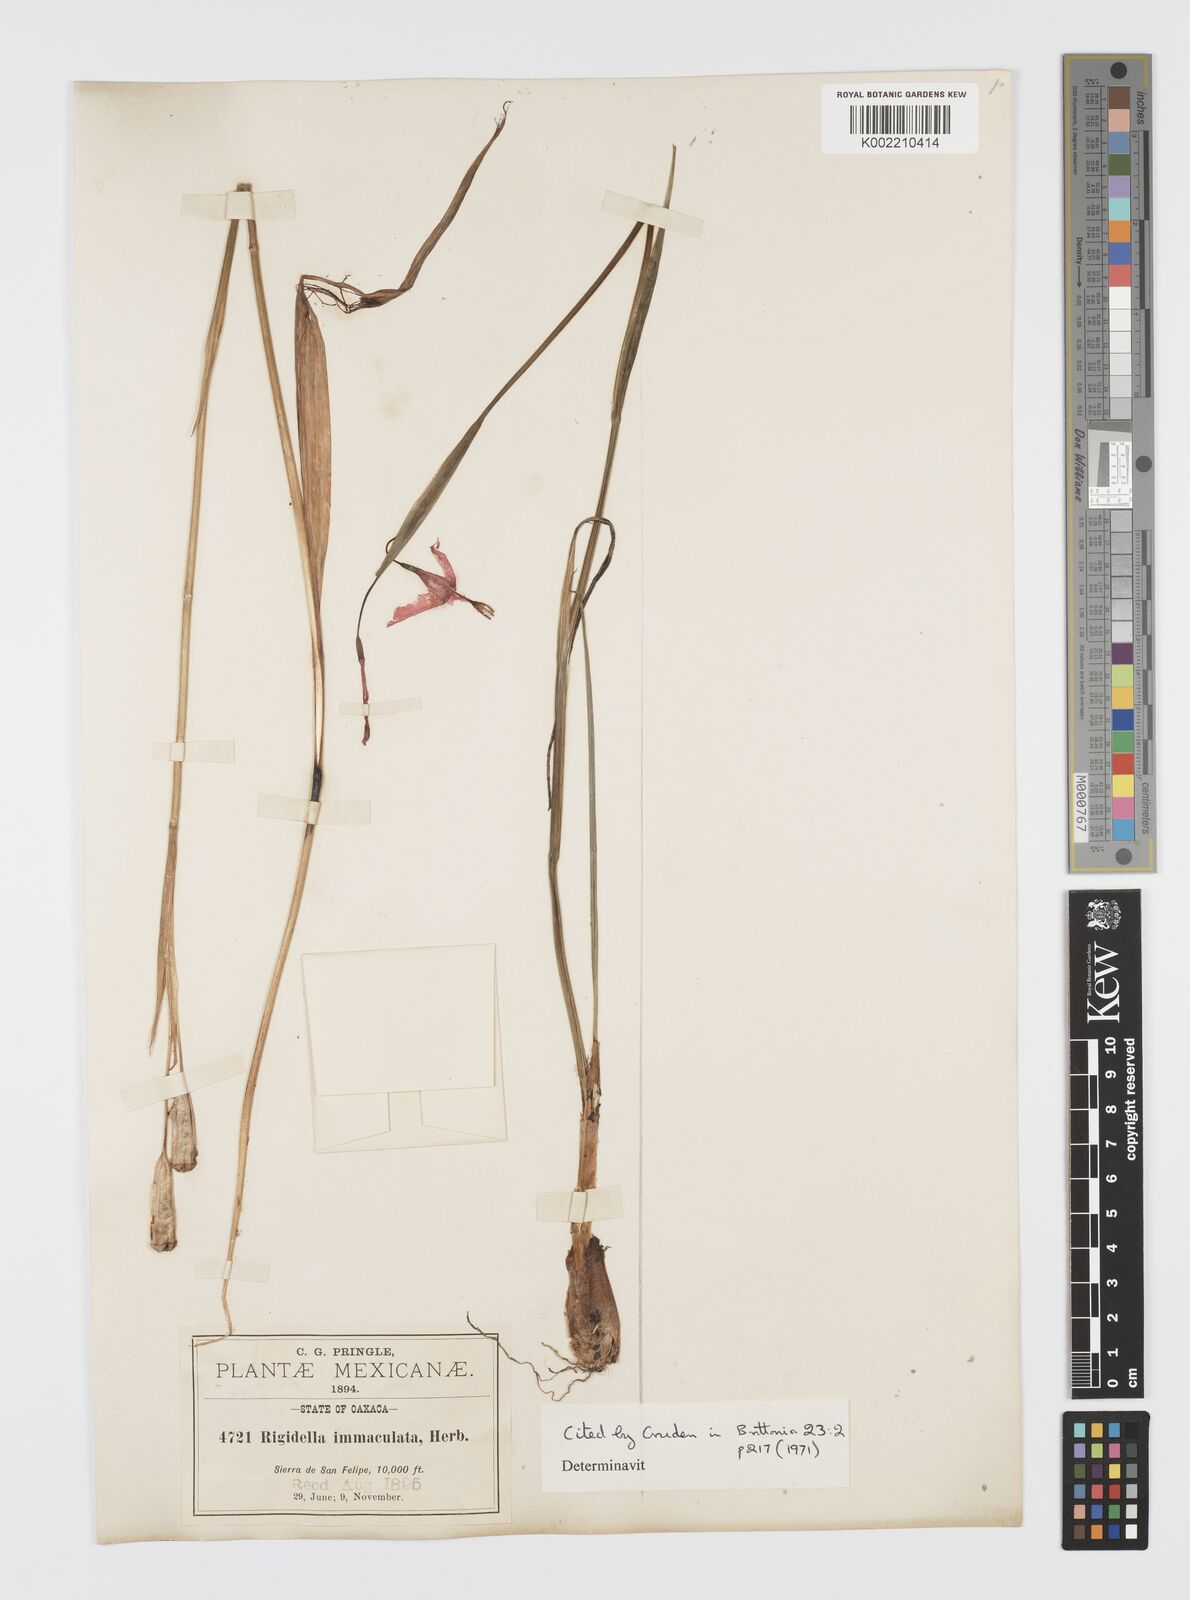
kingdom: Plantae
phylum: Tracheophyta
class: Liliopsida
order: Asparagales
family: Iridaceae
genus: Tigridia
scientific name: Tigridia immaculata
